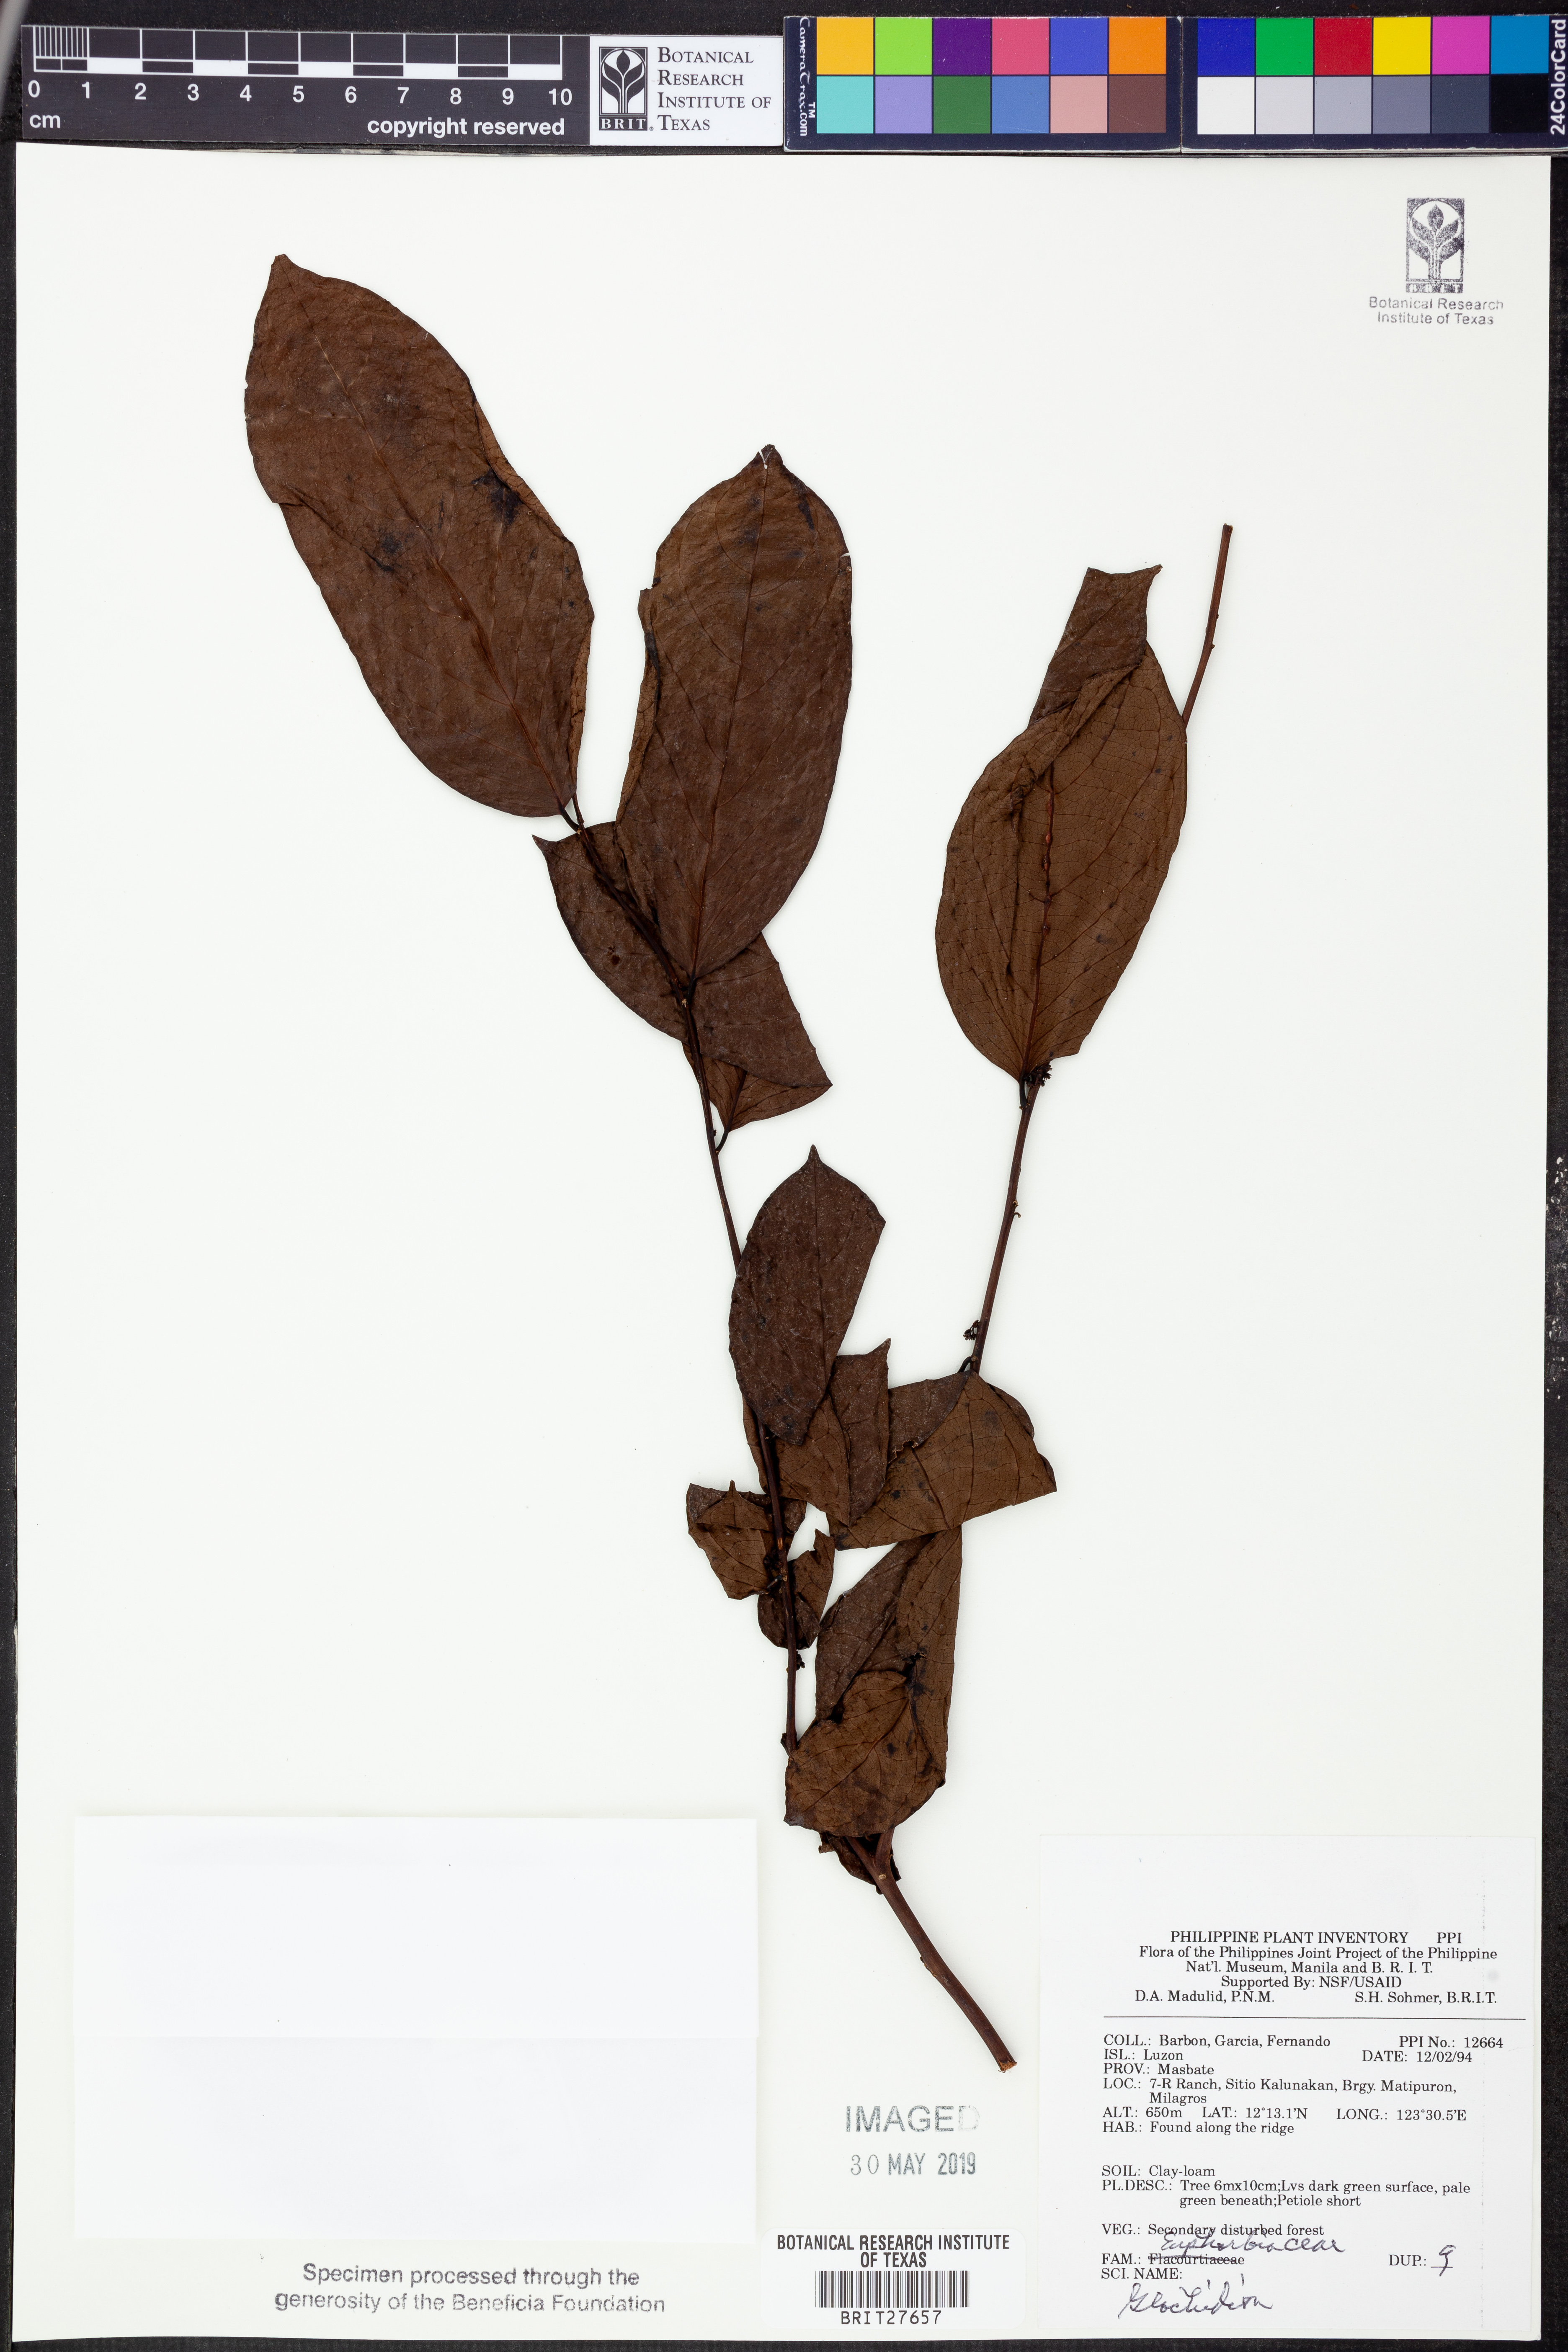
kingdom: Plantae
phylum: Tracheophyta
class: Magnoliopsida
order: Malpighiales
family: Phyllanthaceae
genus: Glochidion
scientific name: Glochidion
